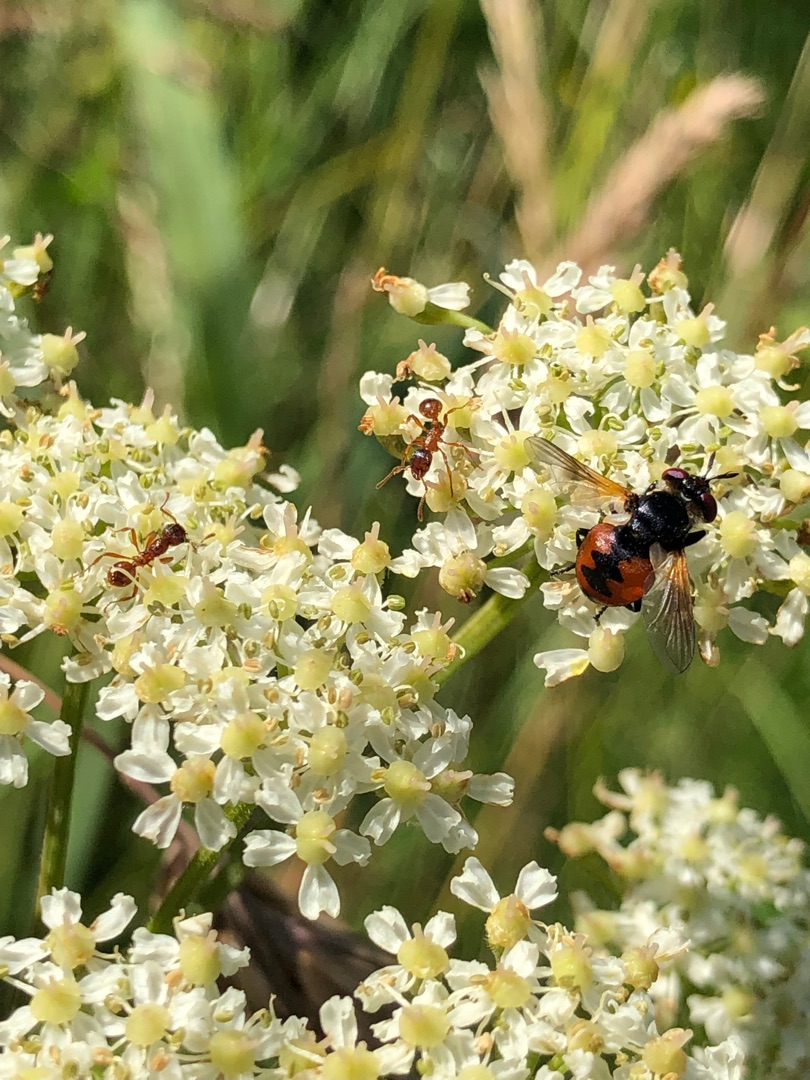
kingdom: Animalia
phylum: Arthropoda
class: Insecta
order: Diptera
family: Tachinidae
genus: Gymnosoma
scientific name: Gymnosoma
